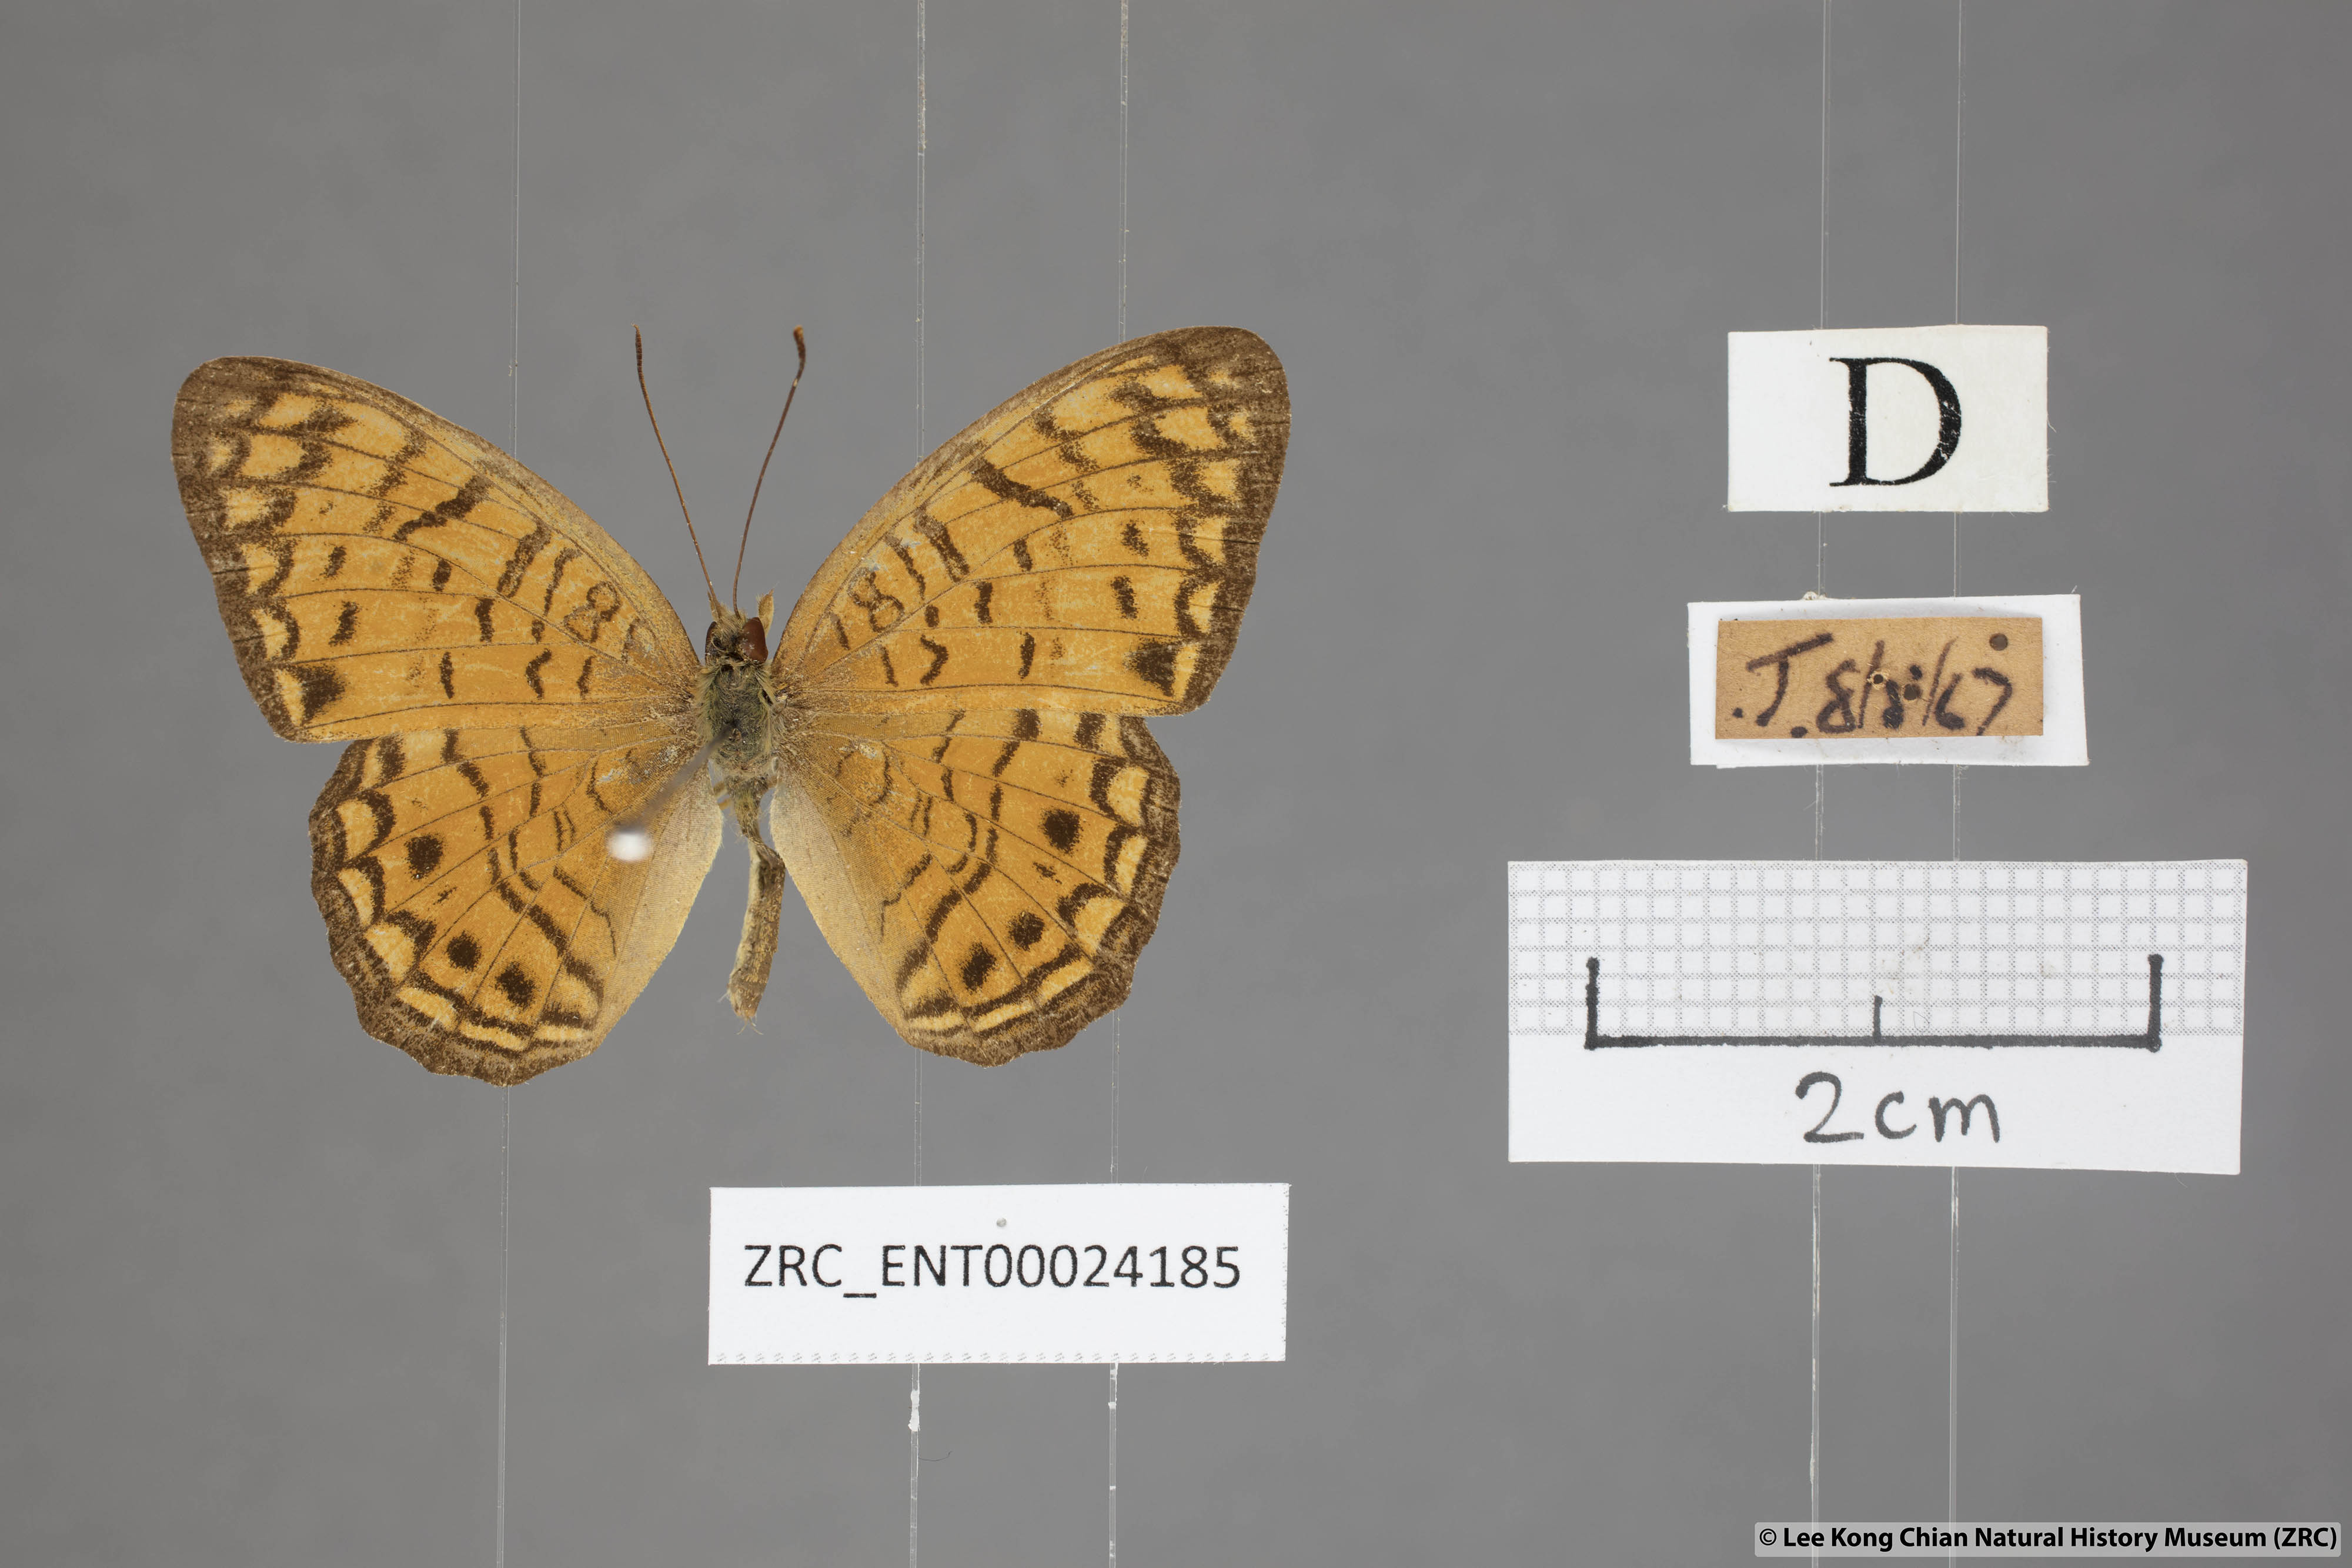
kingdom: Animalia
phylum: Arthropoda
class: Insecta
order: Lepidoptera
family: Nymphalidae
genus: Phalanta
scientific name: Phalanta alcippe
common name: Small leopard
